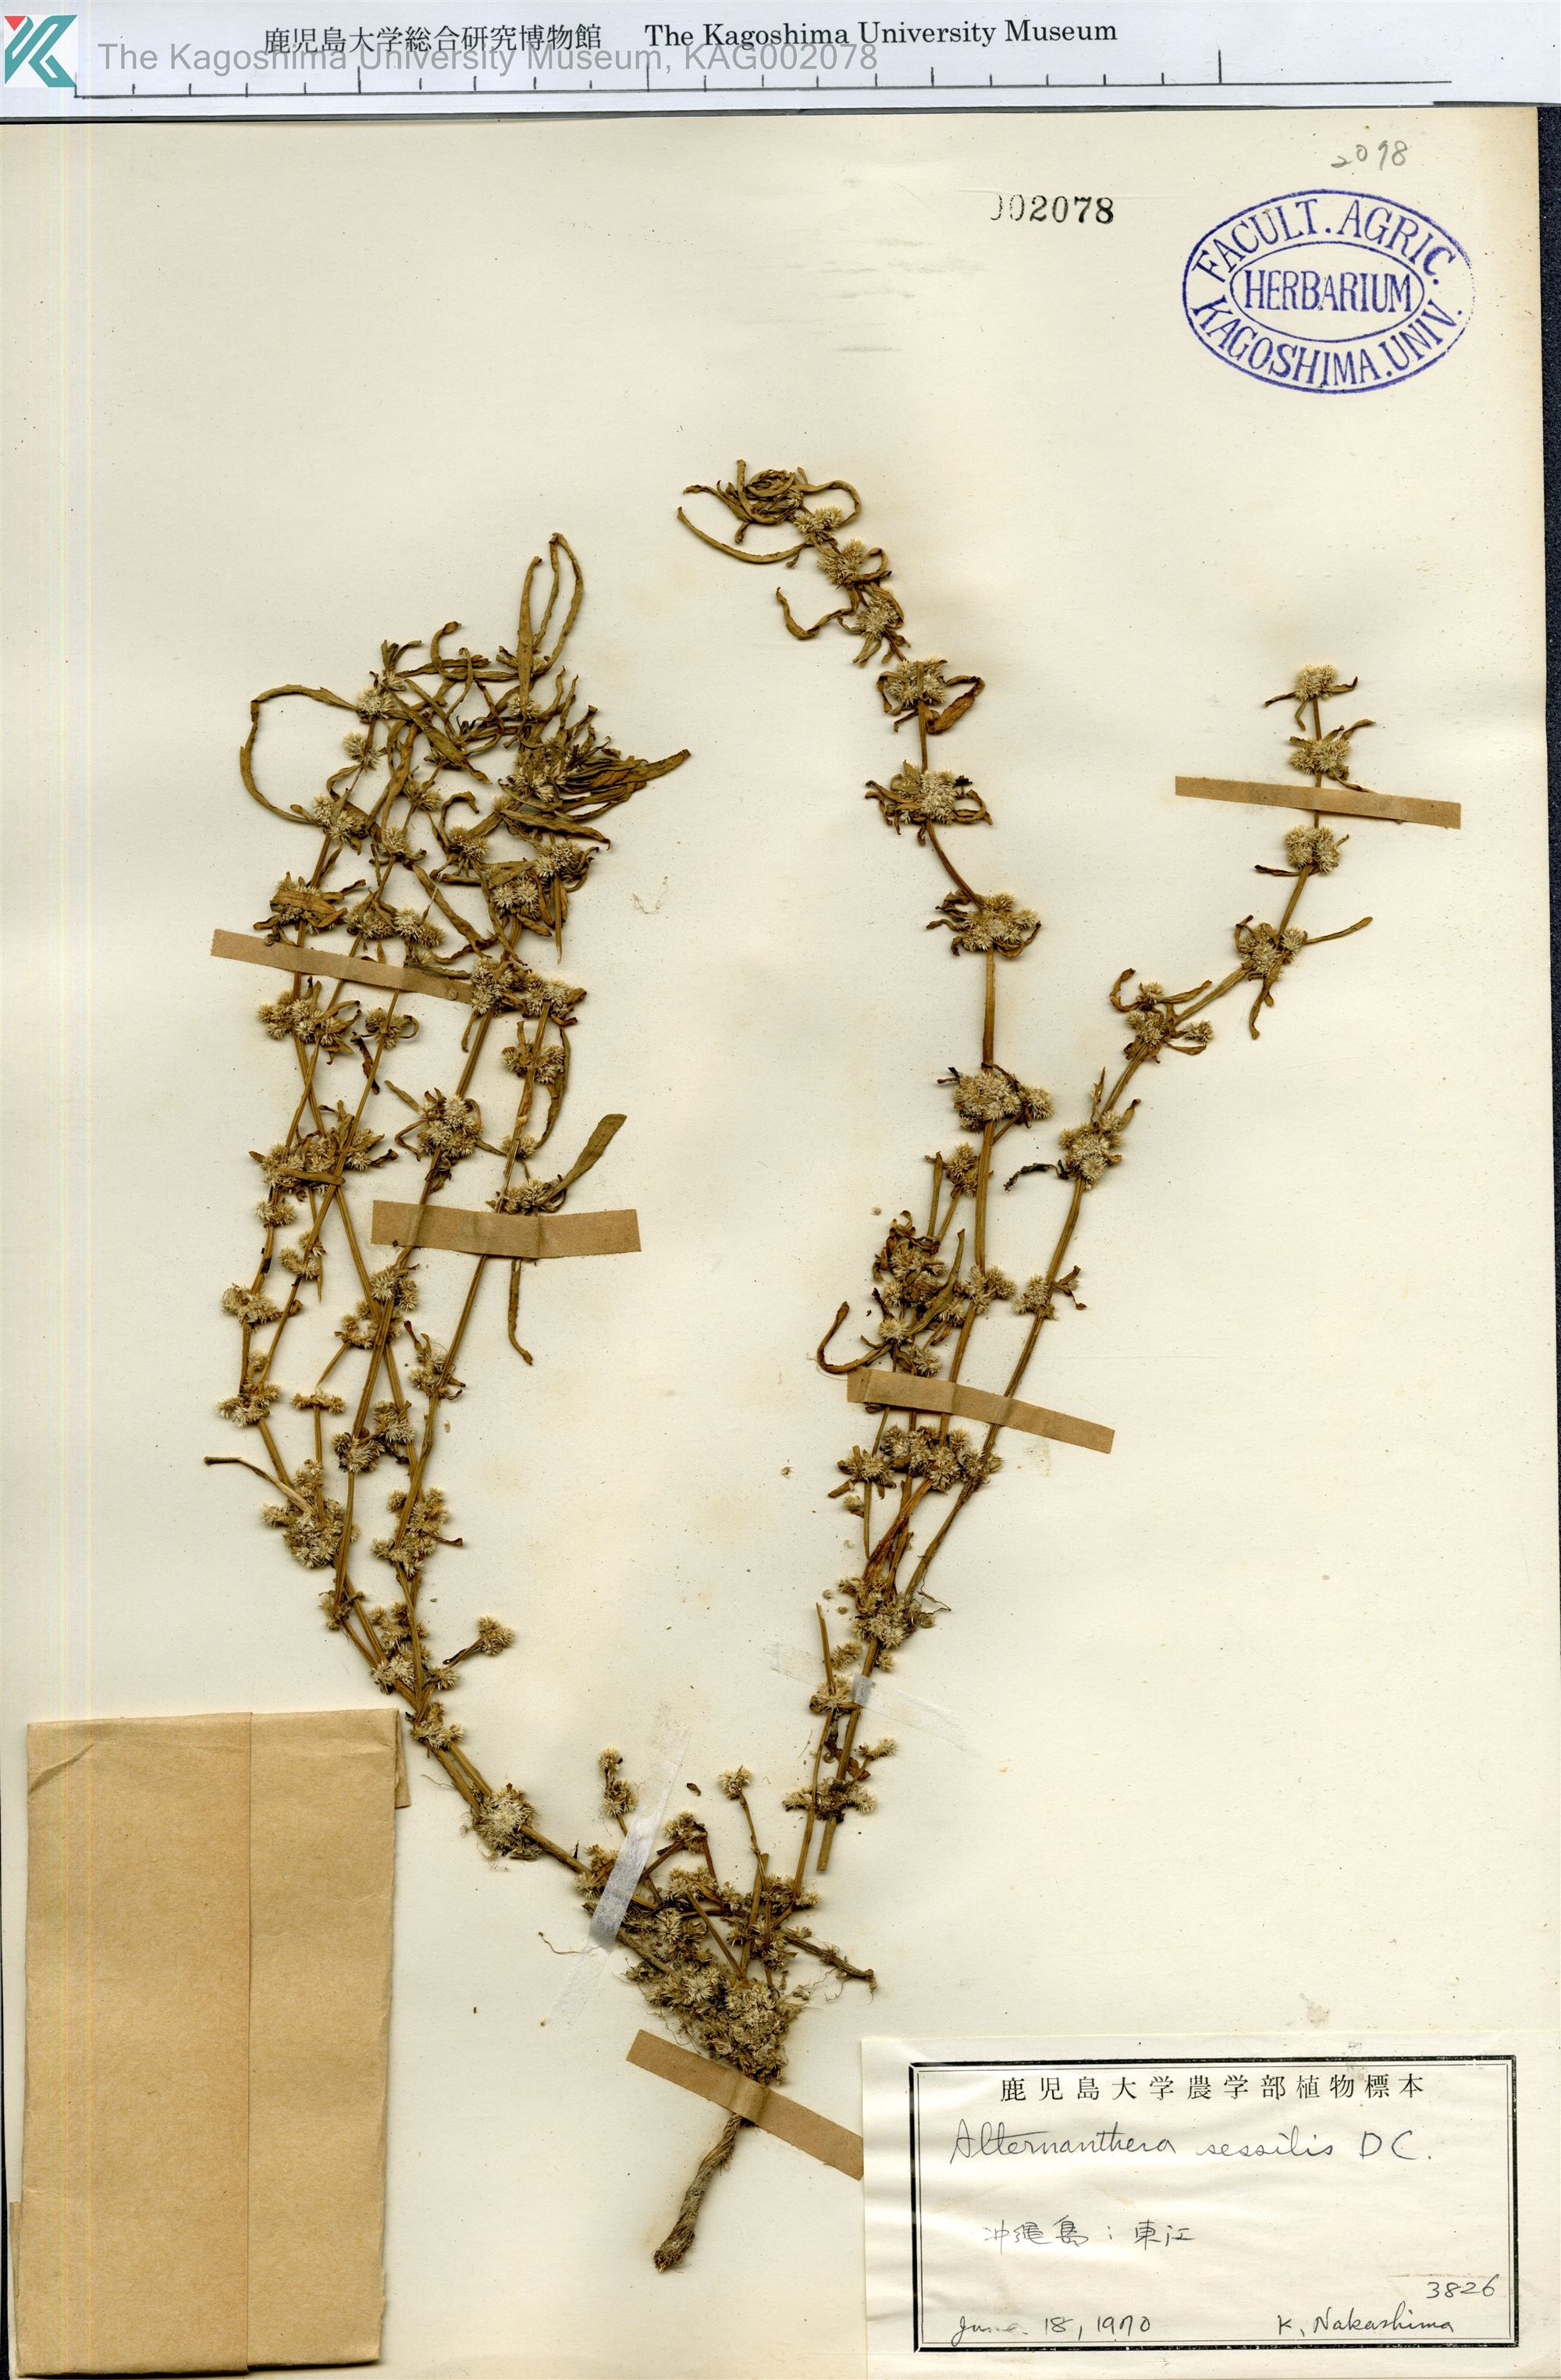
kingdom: Plantae
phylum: Tracheophyta
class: Magnoliopsida
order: Caryophyllales
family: Amaranthaceae
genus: Alternanthera
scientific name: Alternanthera sessilis
